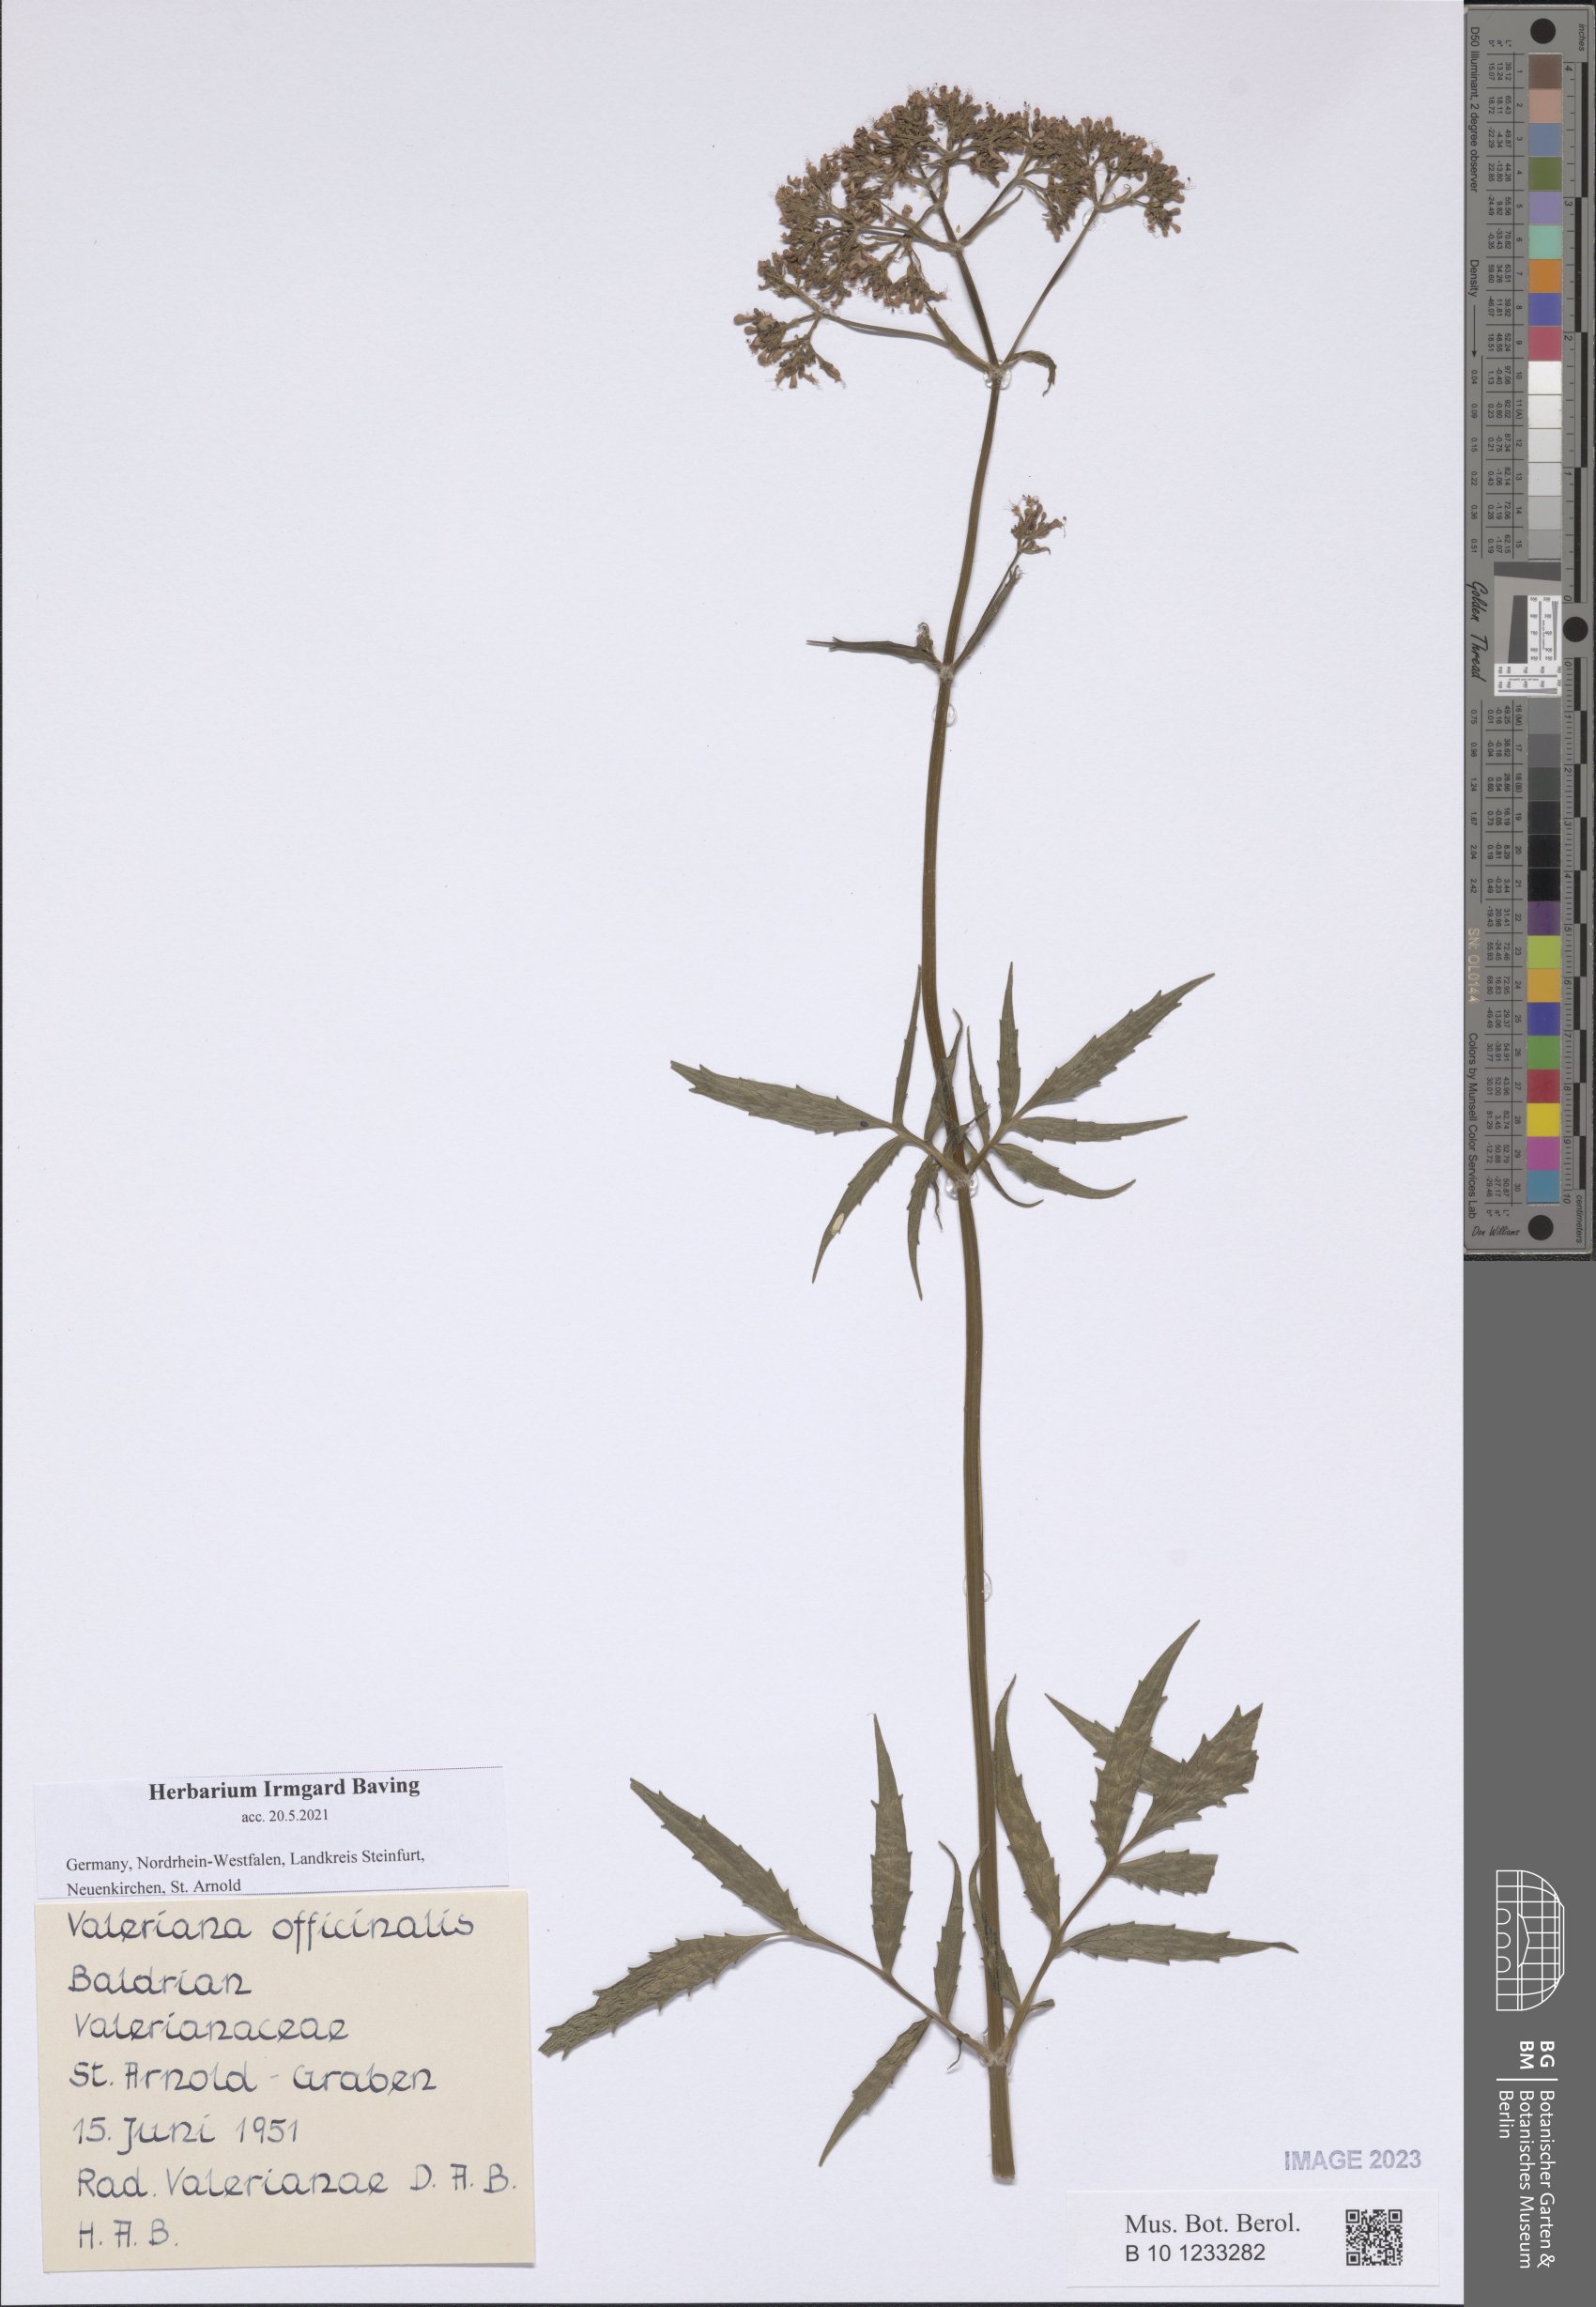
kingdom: Plantae
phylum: Tracheophyta
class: Magnoliopsida
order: Dipsacales
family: Caprifoliaceae
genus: Valeriana
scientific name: Valeriana officinalis
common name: Common valerian
